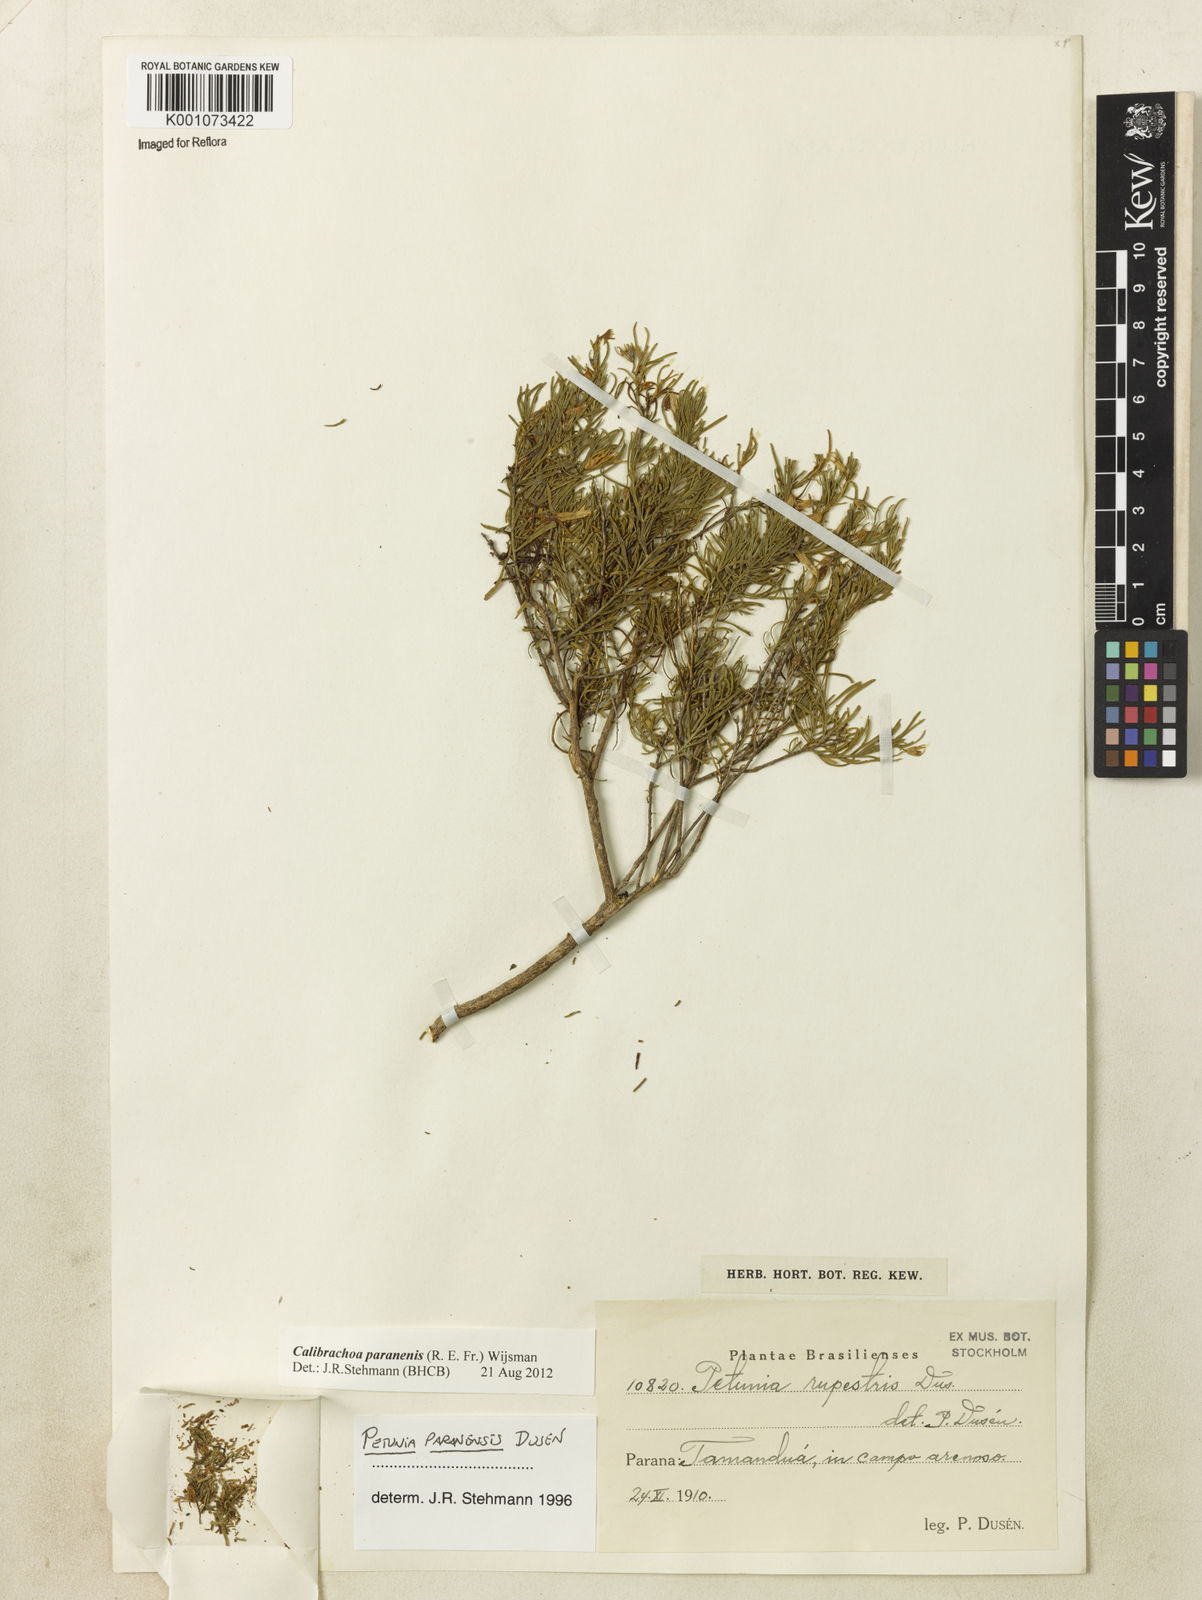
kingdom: Plantae
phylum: Tracheophyta
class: Magnoliopsida
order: Solanales
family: Solanaceae
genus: Calibrachoa
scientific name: Calibrachoa
